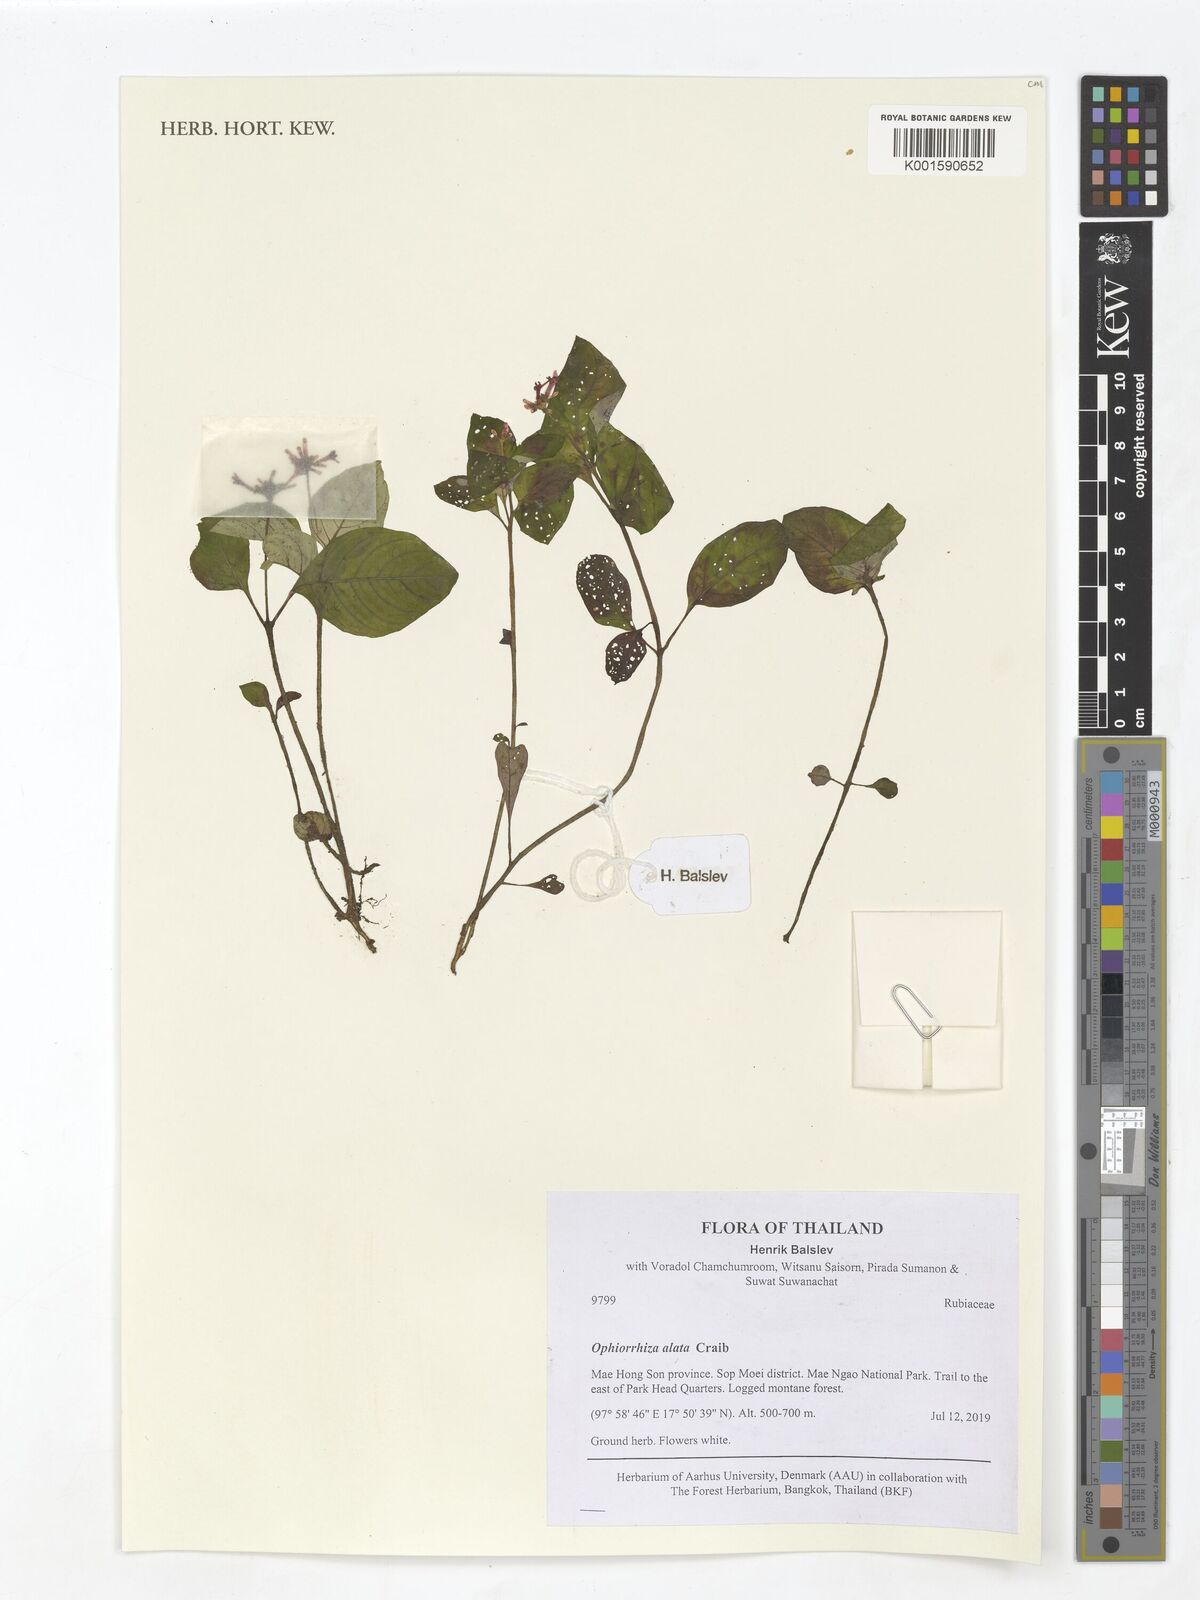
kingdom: Plantae
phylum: Tracheophyta
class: Magnoliopsida
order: Gentianales
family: Rubiaceae
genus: Ophiorrhiza
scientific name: Ophiorrhiza alata
